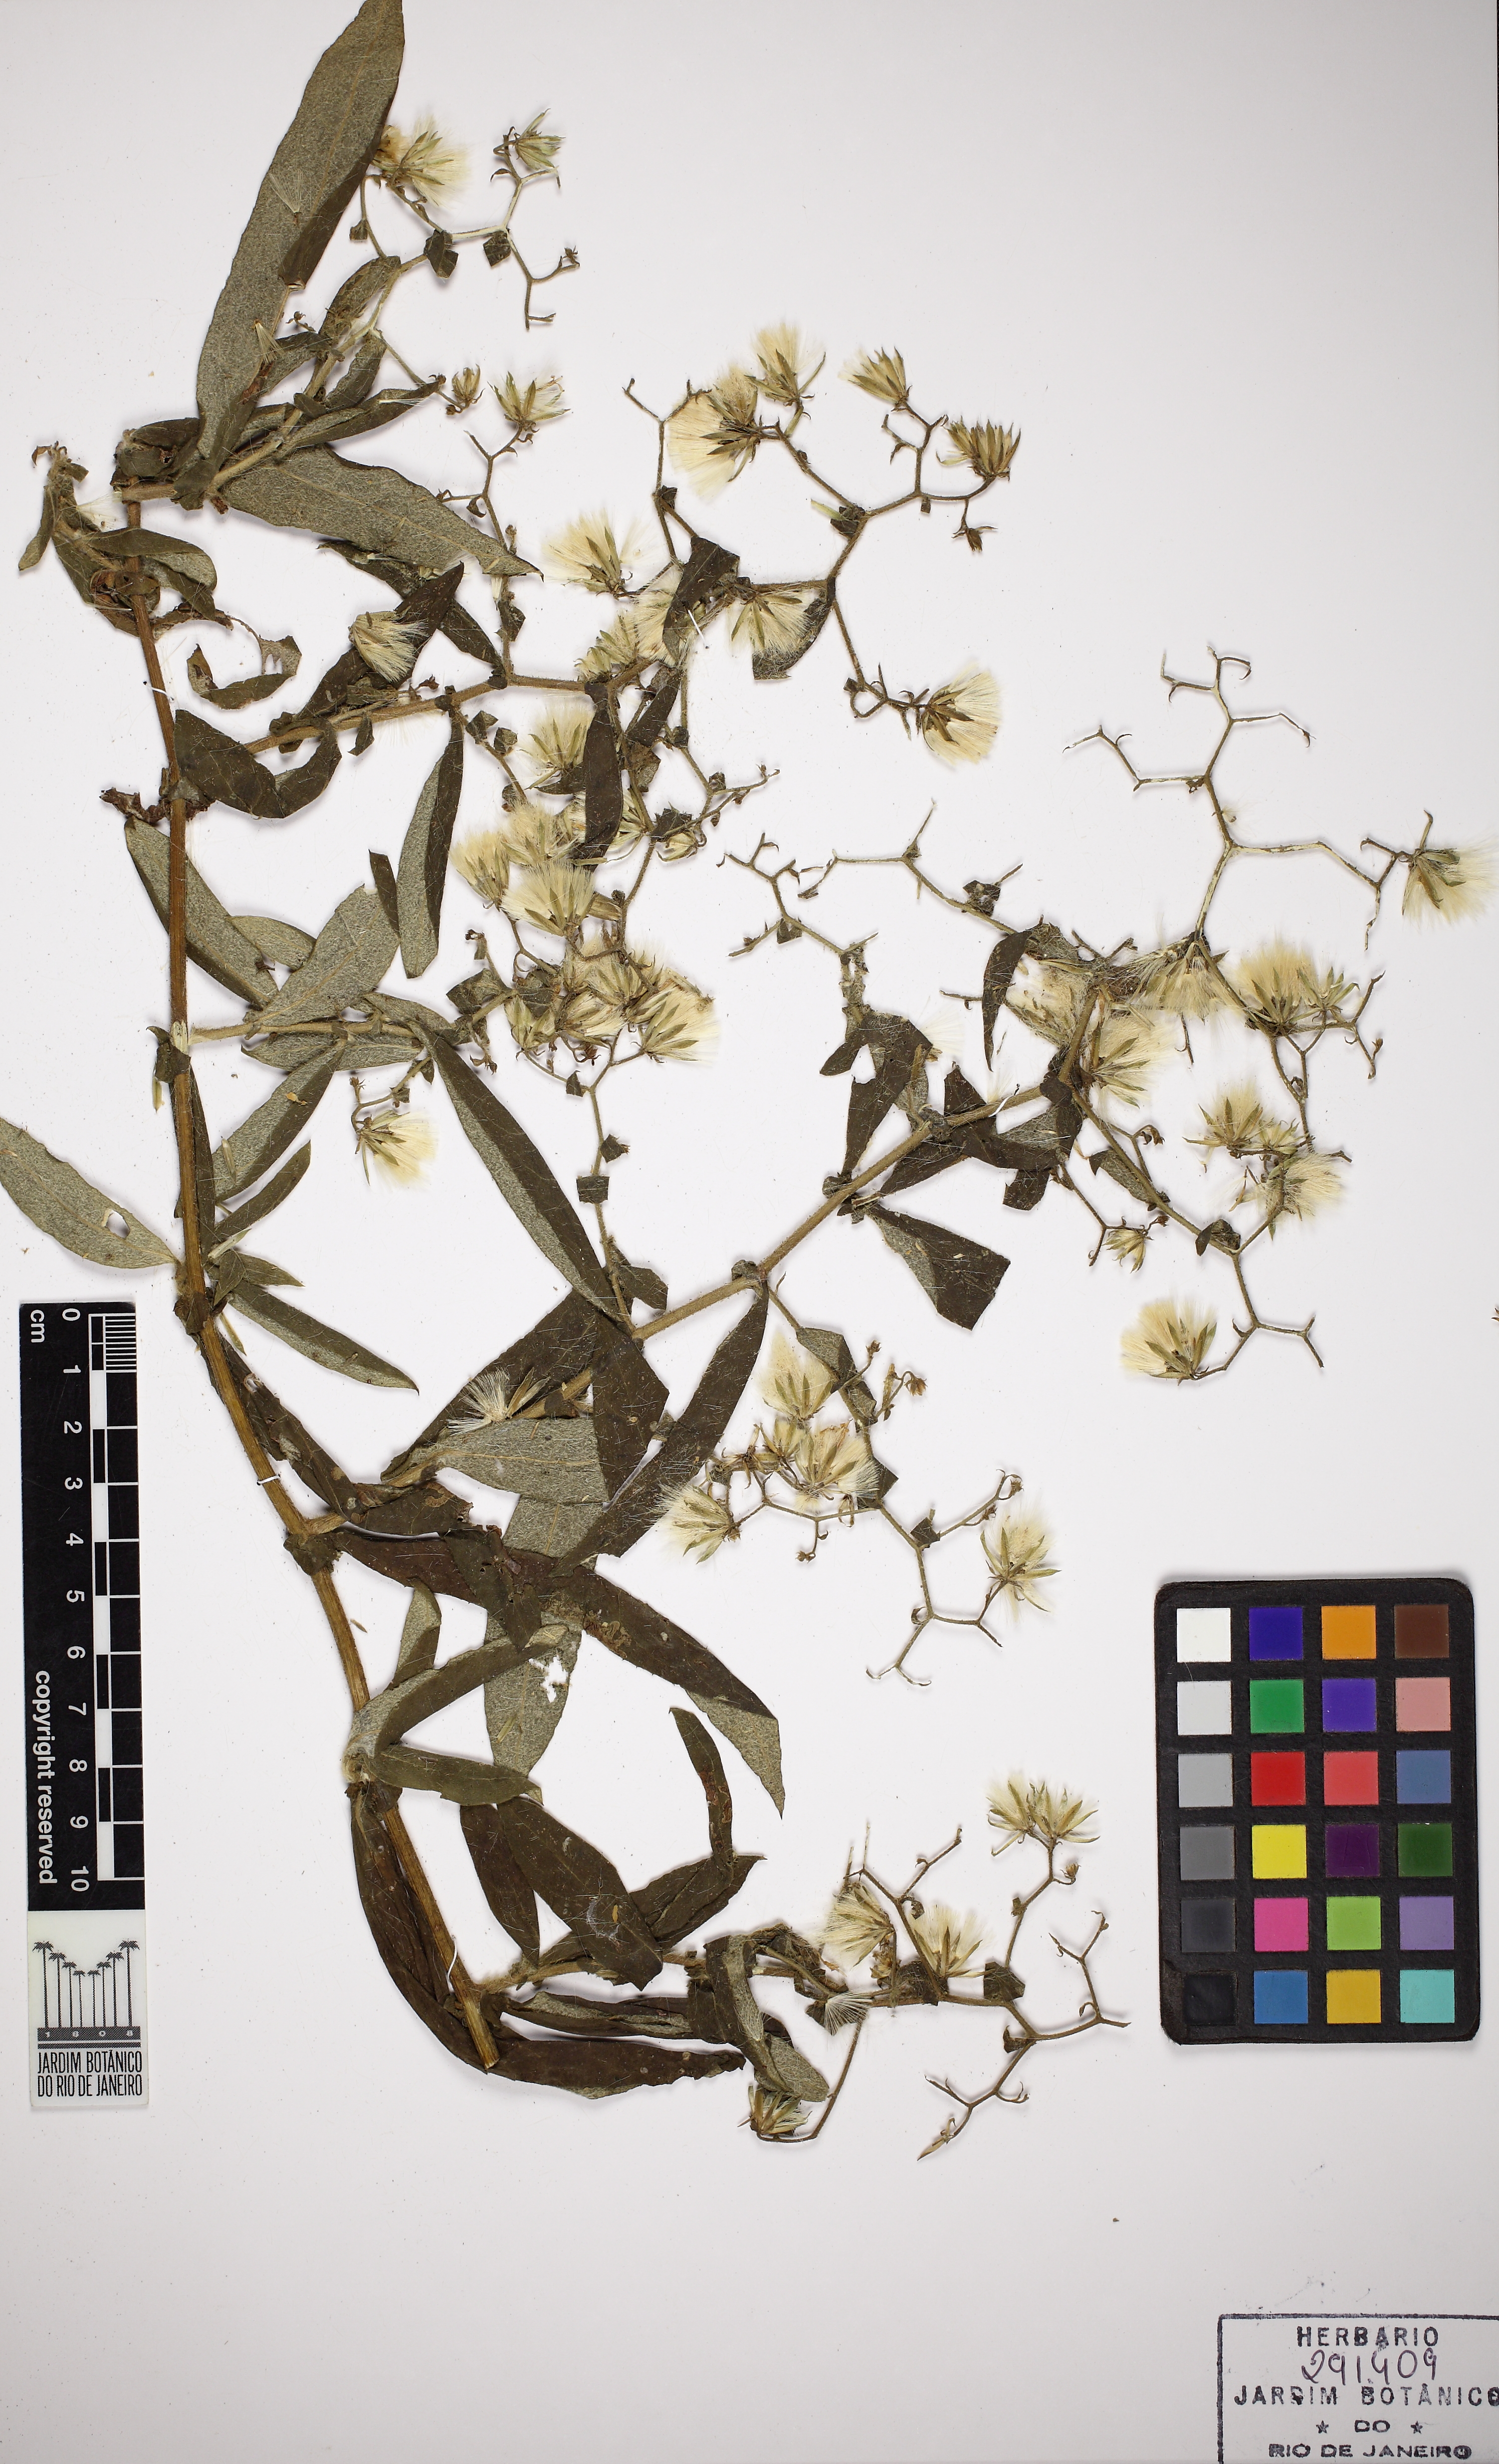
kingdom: Plantae
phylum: Tracheophyta
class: Magnoliopsida
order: Asterales
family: Asteraceae
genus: Trixis
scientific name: Trixis divaricata
